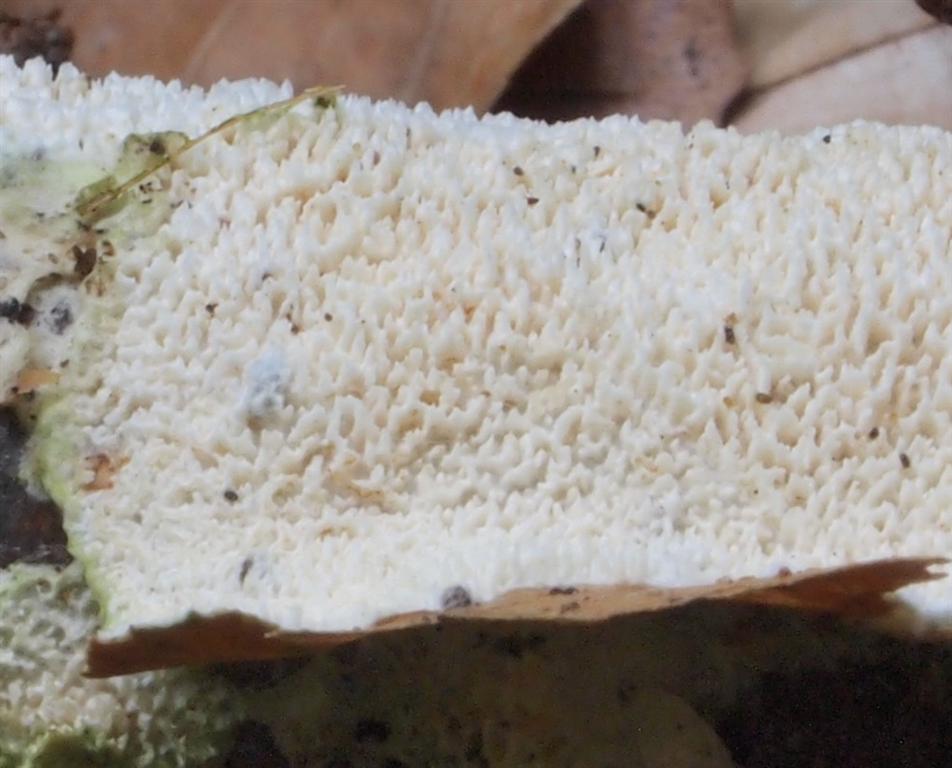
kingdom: Fungi
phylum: Basidiomycota
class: Agaricomycetes
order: Hymenochaetales
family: Schizoporaceae
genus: Schizopora
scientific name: Schizopora paradoxa
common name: hvid tandsvamp
